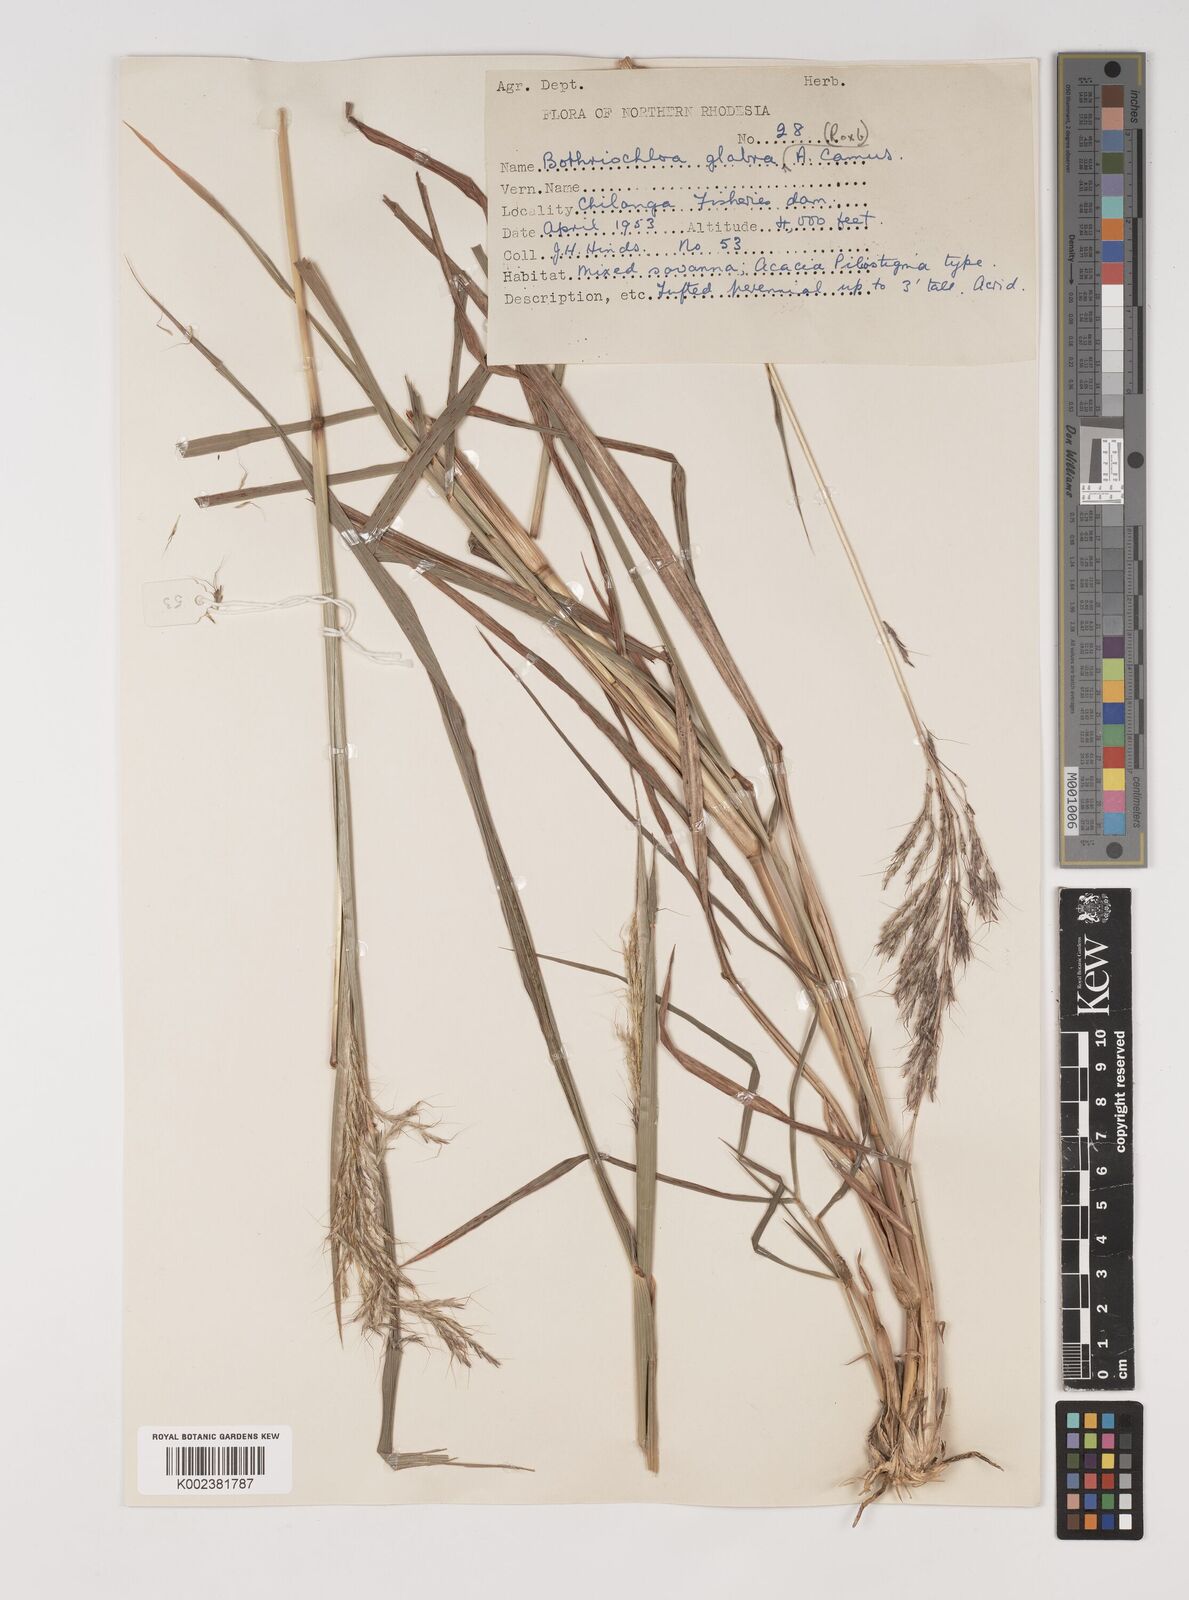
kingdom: Plantae
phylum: Tracheophyta
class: Liliopsida
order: Poales
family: Poaceae
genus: Bothriochloa
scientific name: Bothriochloa bladhii
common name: Caucasian bluestem
